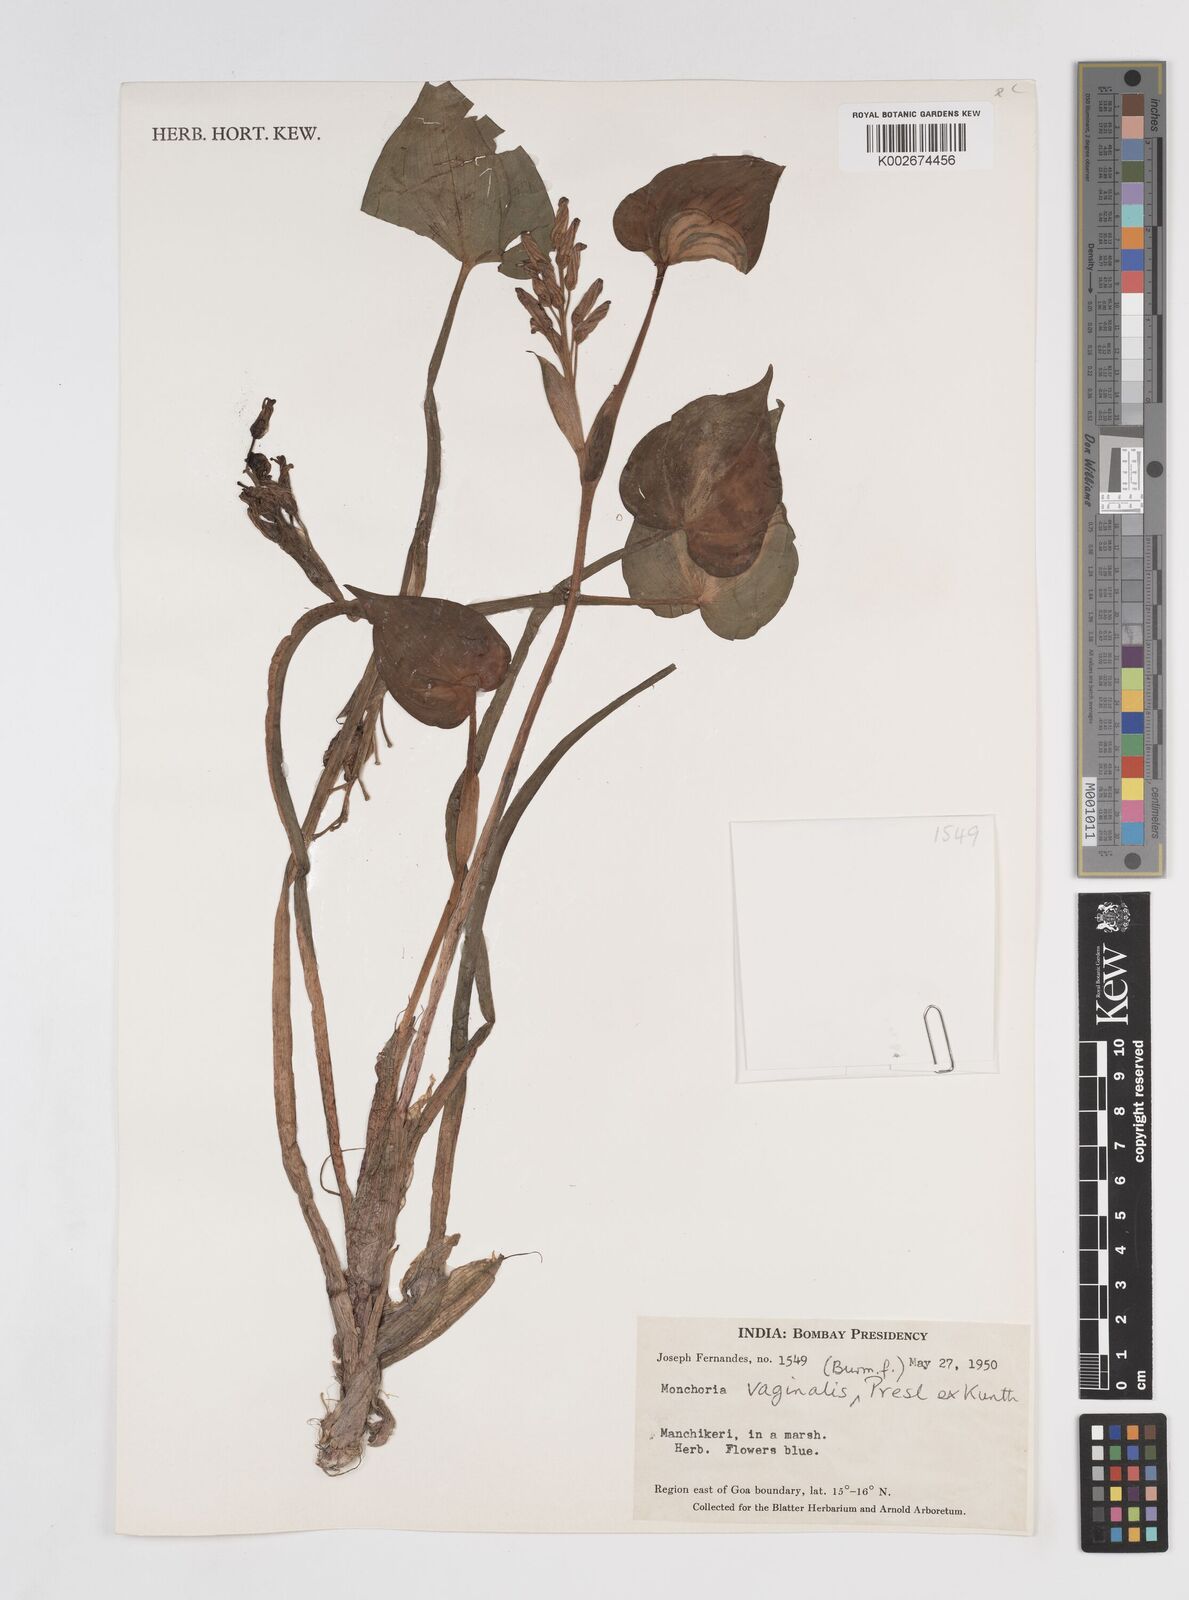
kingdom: Plantae
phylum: Tracheophyta
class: Liliopsida
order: Commelinales
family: Pontederiaceae
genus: Pontederia
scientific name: Pontederia vaginalis
